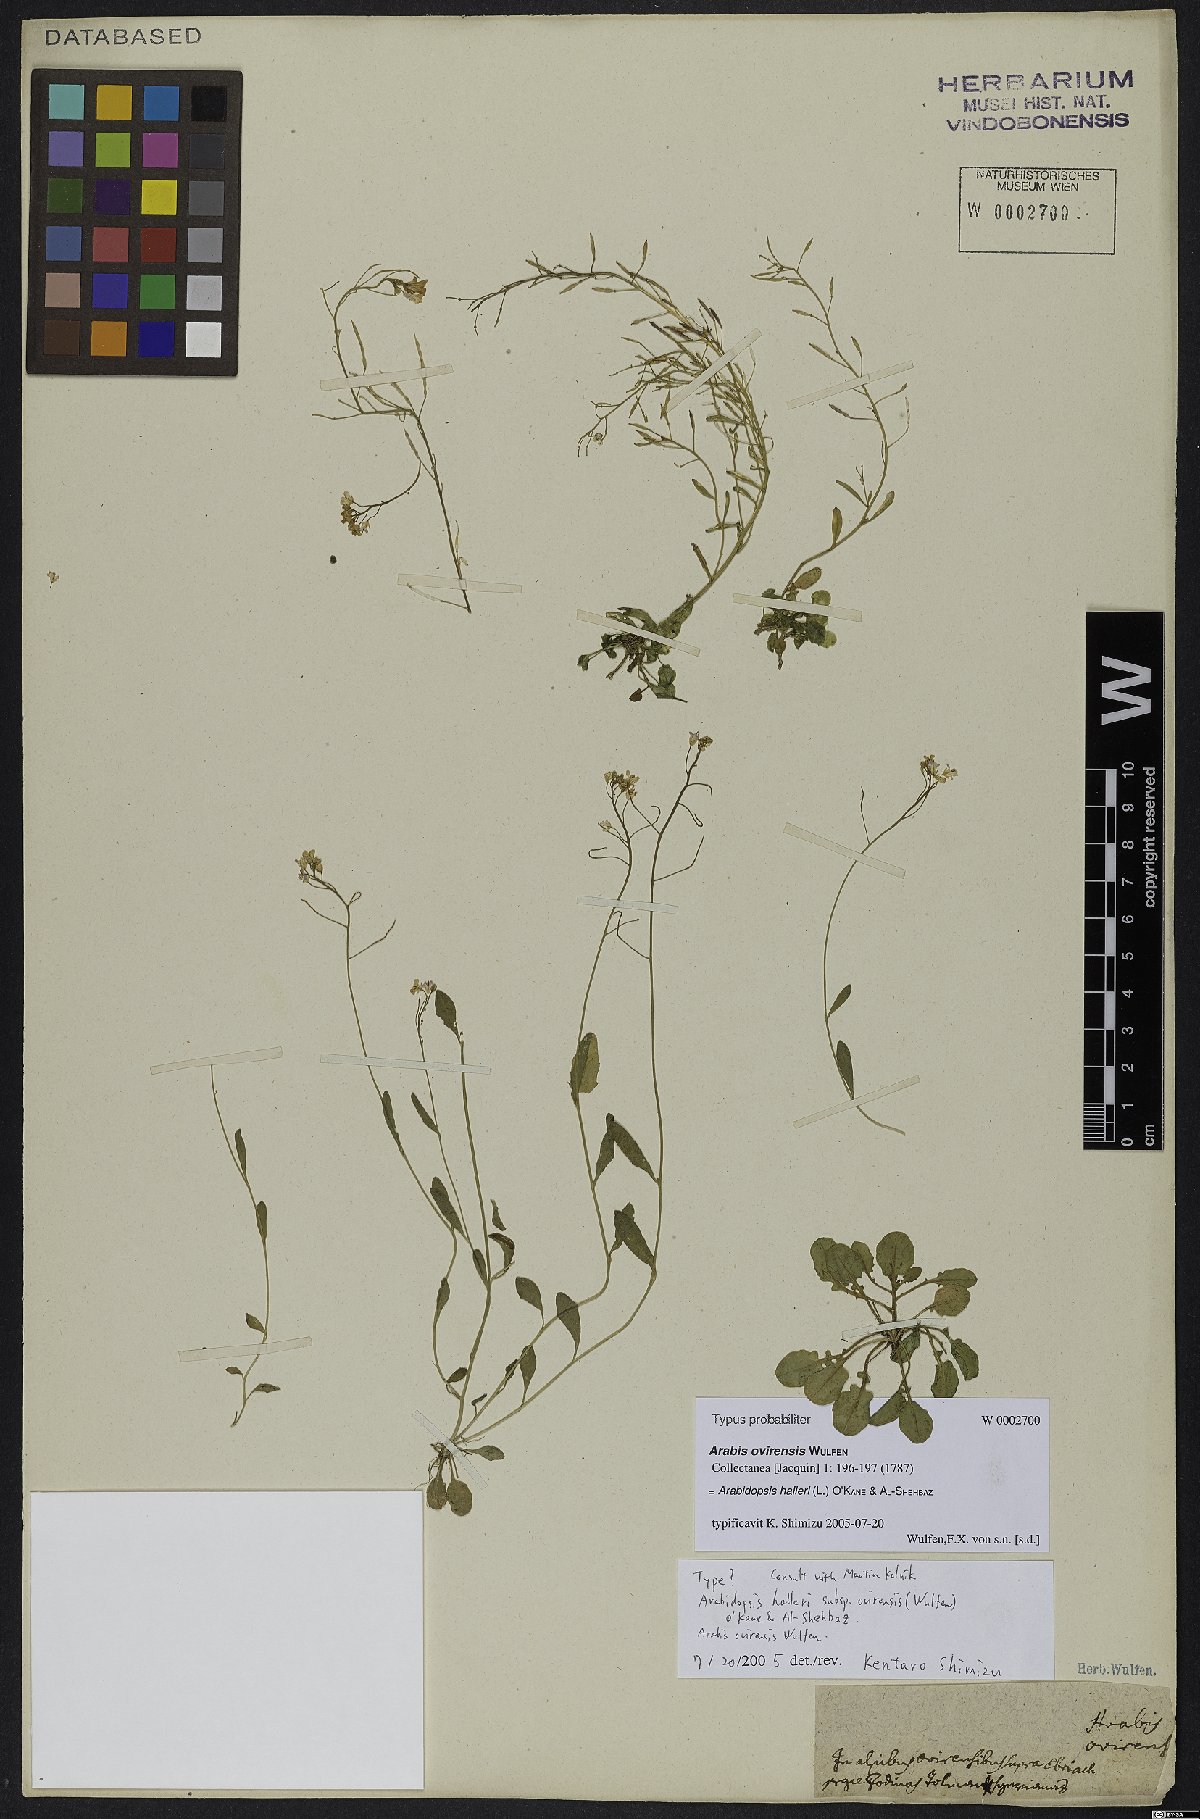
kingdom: Plantae
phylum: Tracheophyta
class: Magnoliopsida
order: Brassicales
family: Brassicaceae
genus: Arabidopsis
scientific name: Arabidopsis halleri
